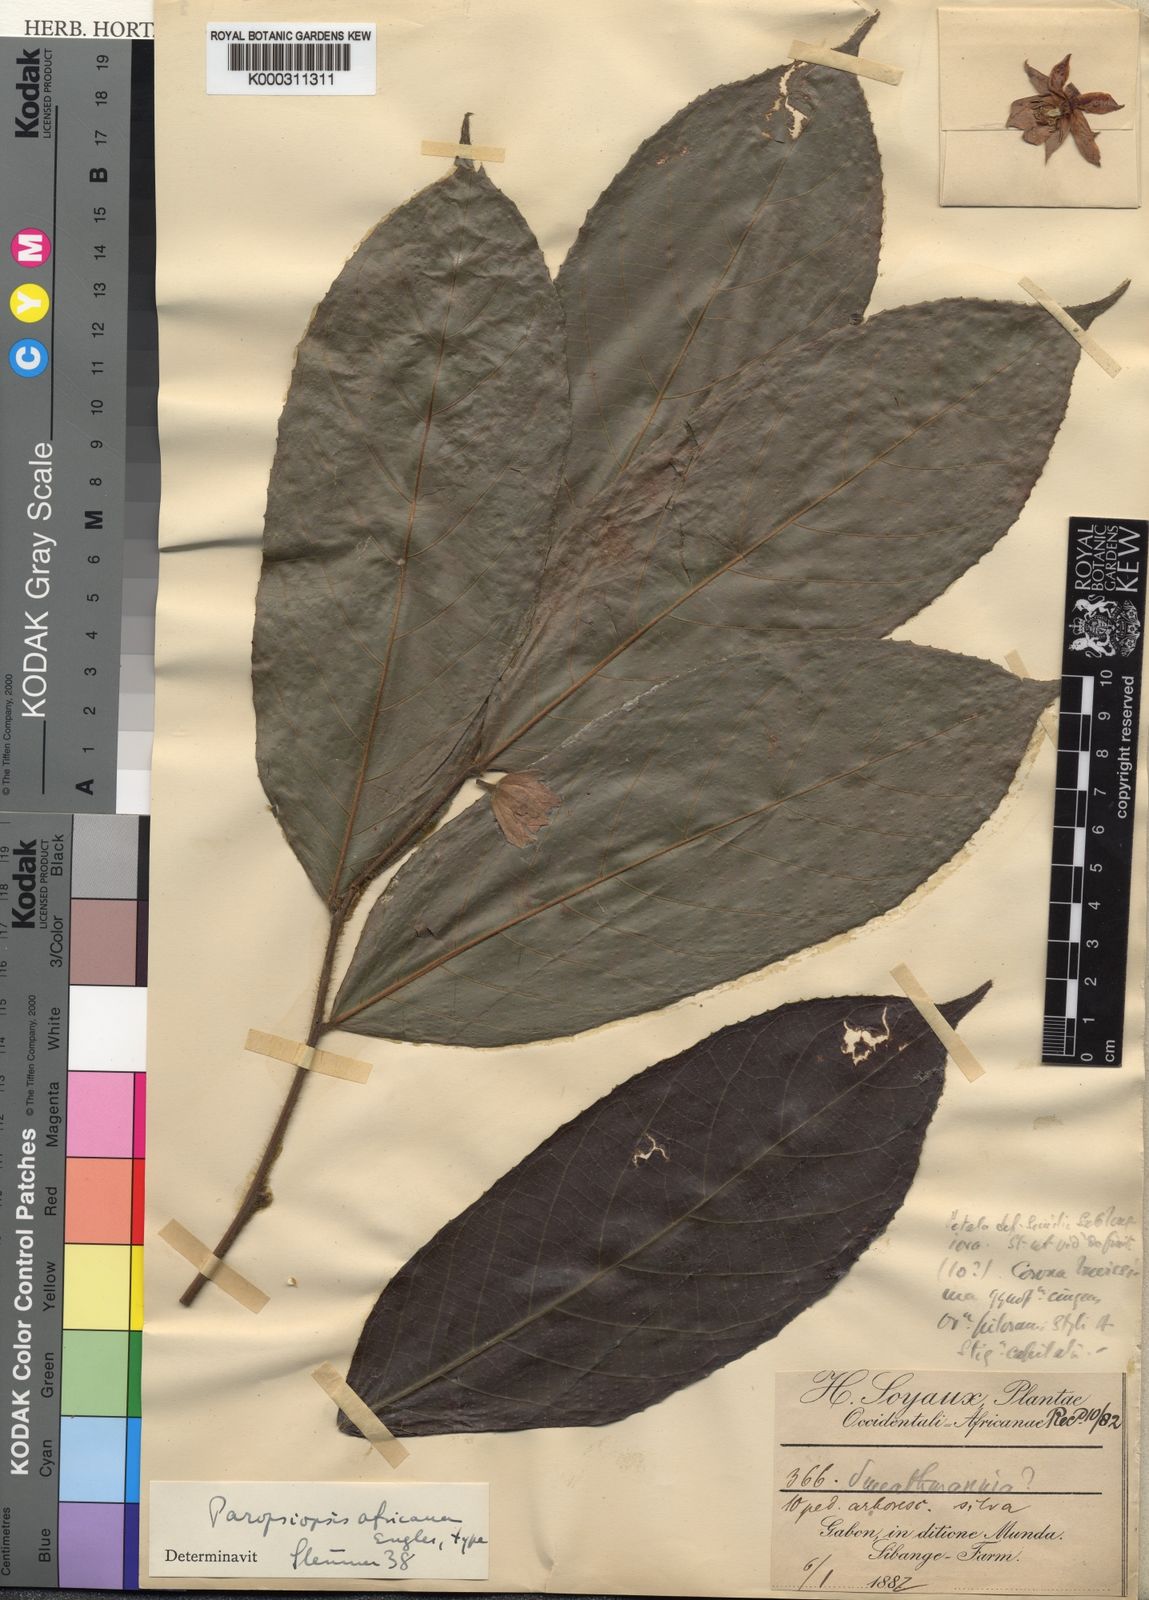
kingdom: Plantae
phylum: Tracheophyta
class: Magnoliopsida
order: Malpighiales
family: Passifloraceae
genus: Paropsiopsis
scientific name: Paropsiopsis decandra
